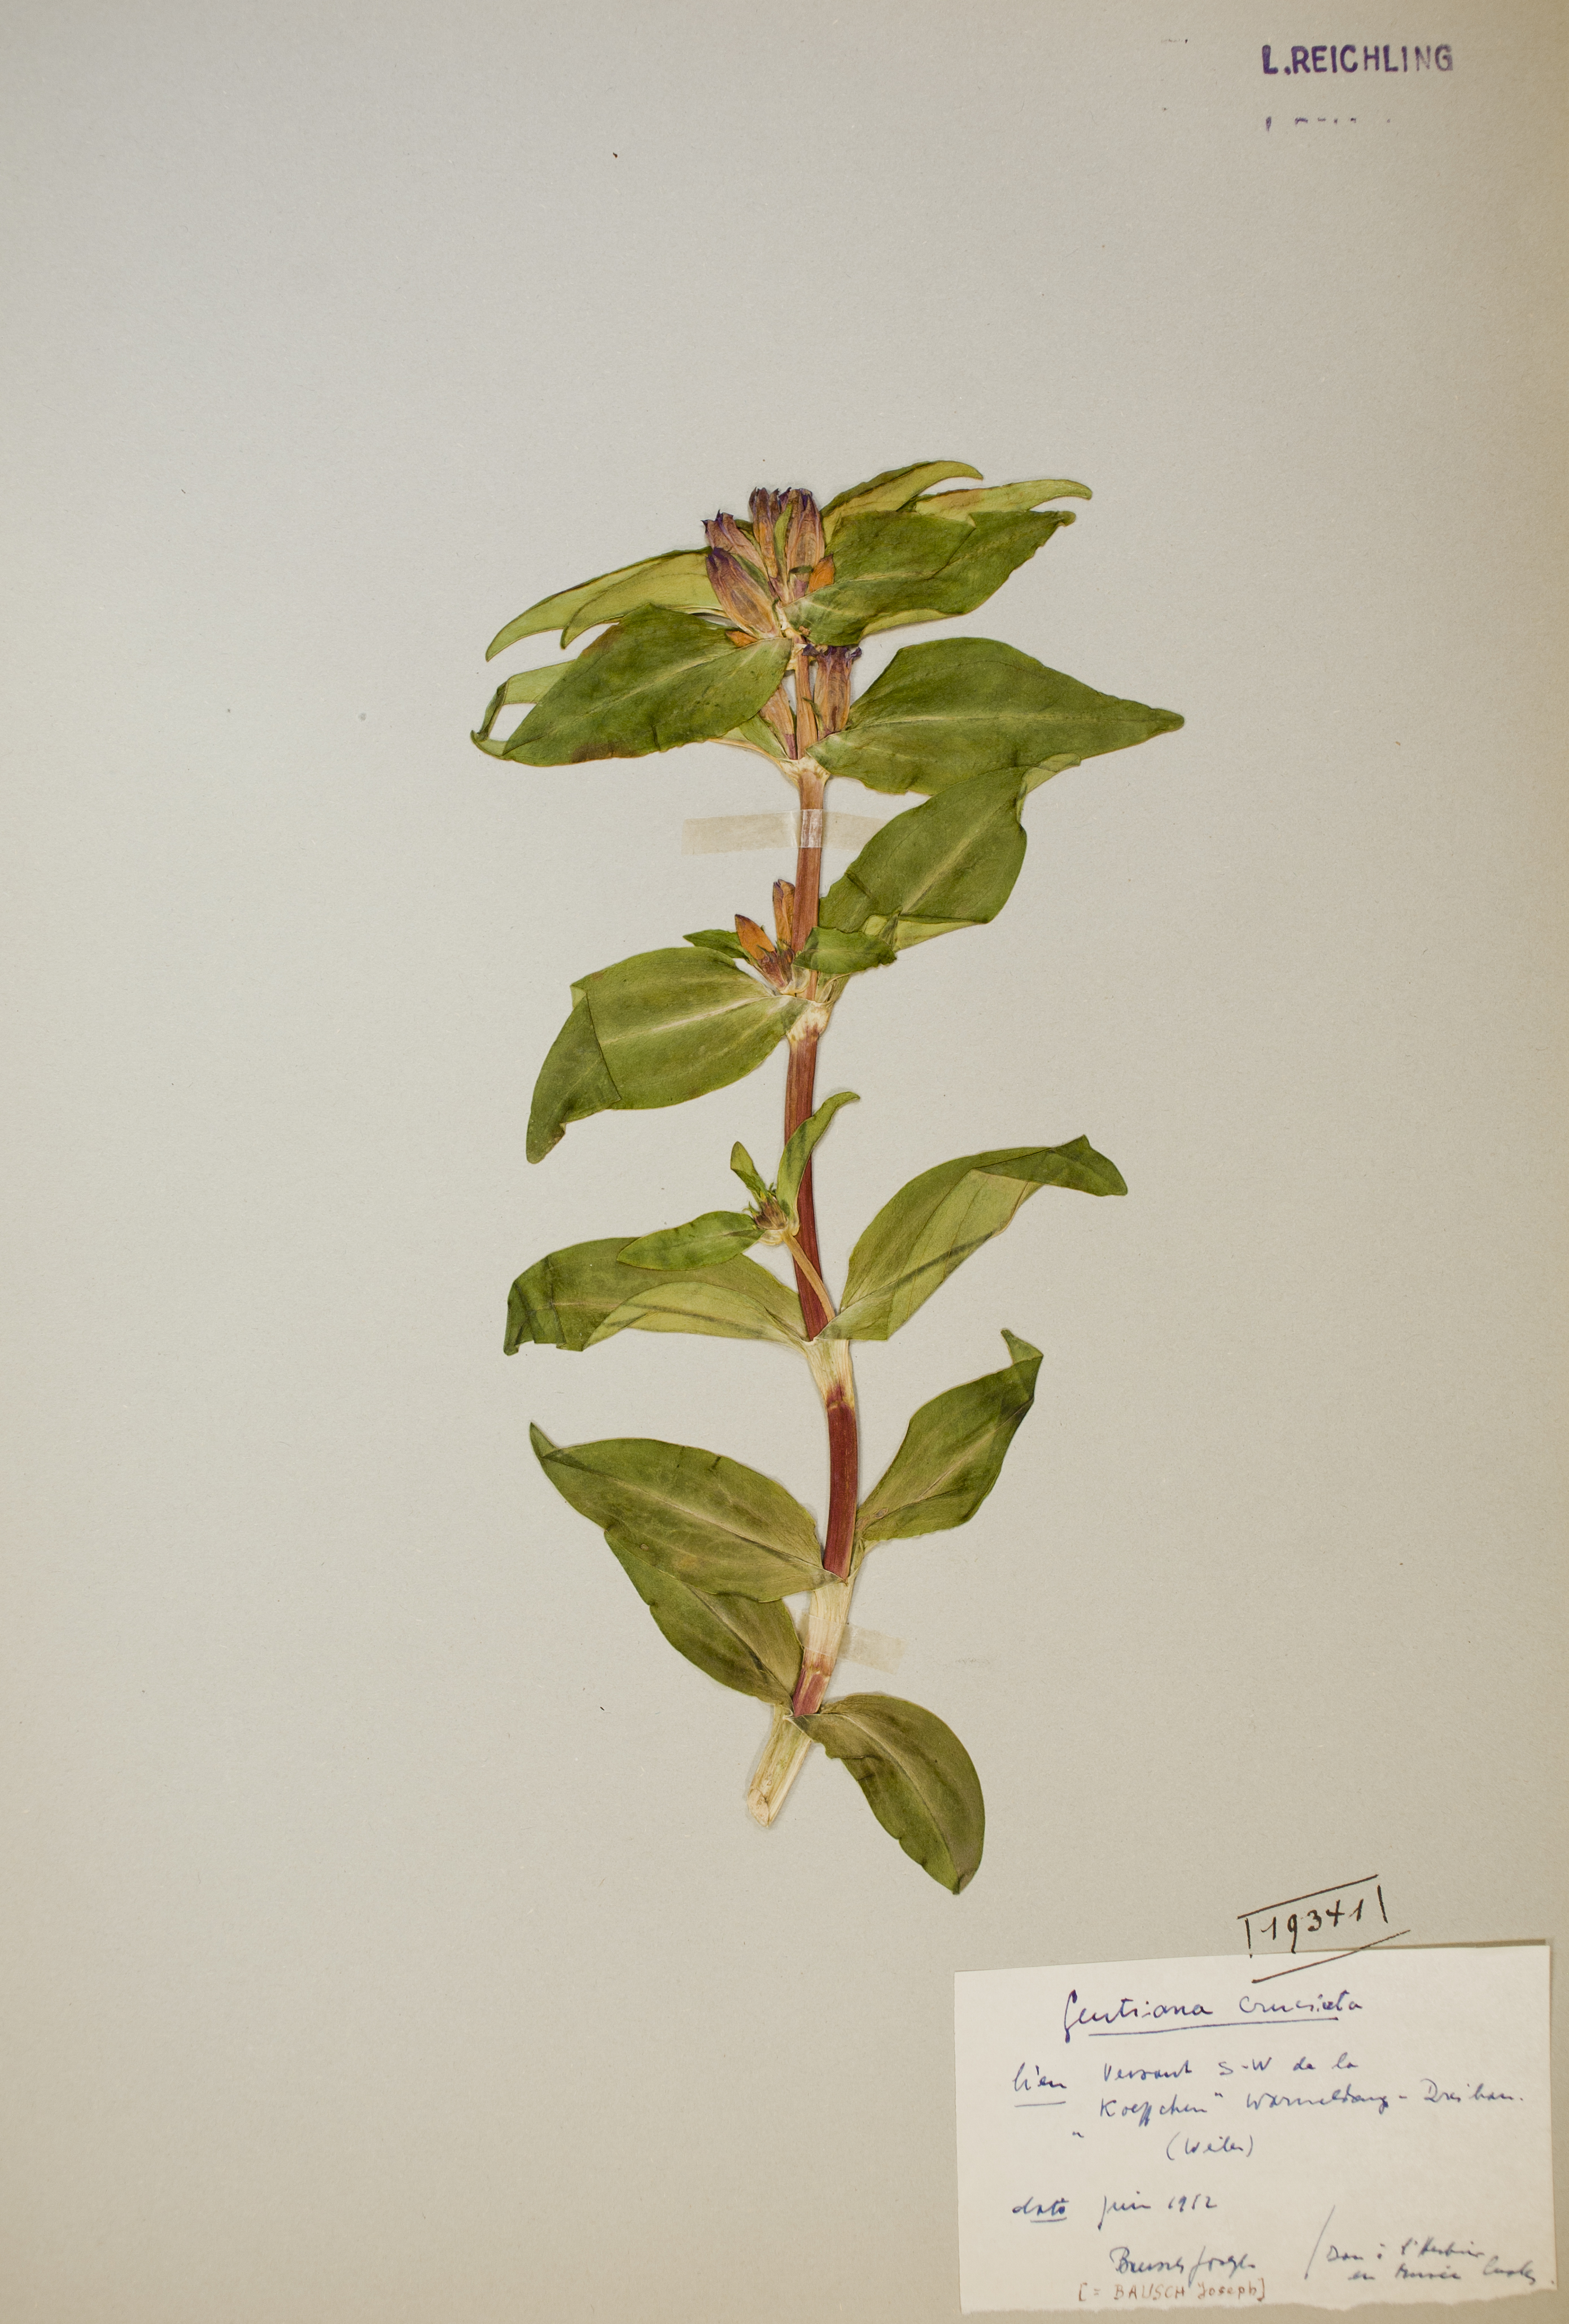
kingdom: Plantae
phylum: Tracheophyta
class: Magnoliopsida
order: Gentianales
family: Gentianaceae
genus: Gentiana
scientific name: Gentiana cruciata
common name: Cross gentian
